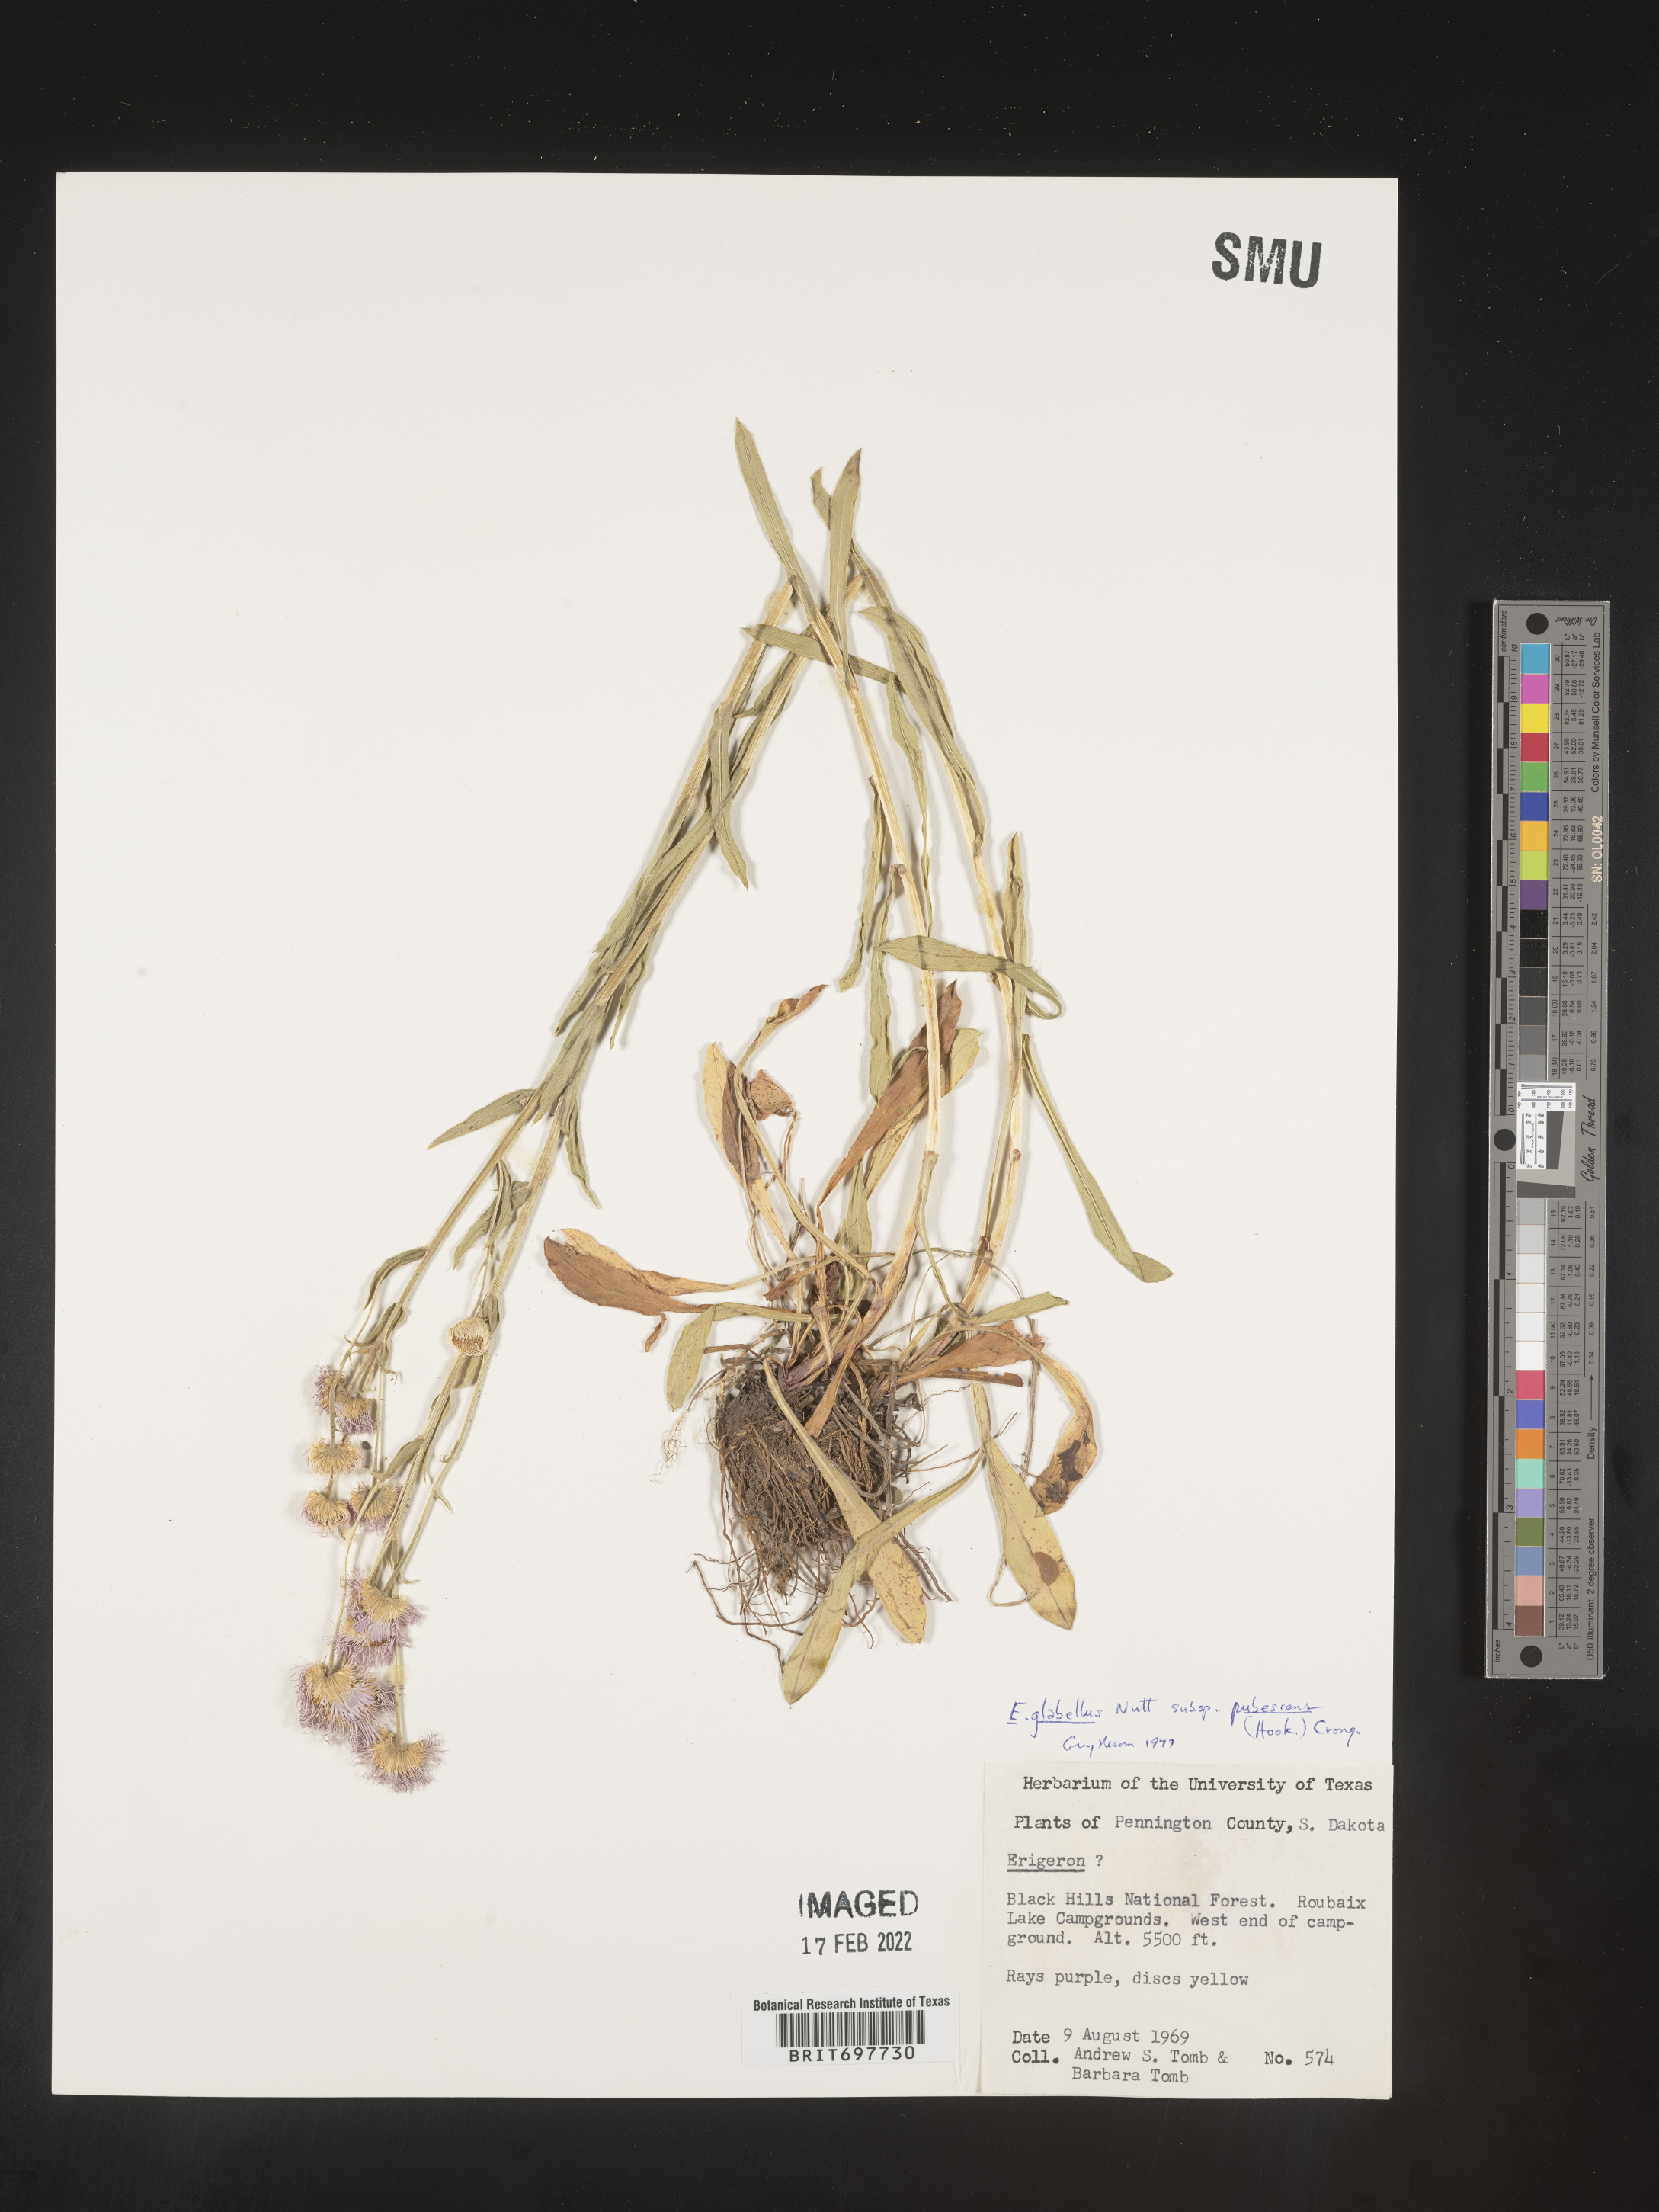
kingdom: Plantae
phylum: Tracheophyta
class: Magnoliopsida
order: Asterales
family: Asteraceae
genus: Erigeron
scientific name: Erigeron glabellus
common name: Smooth fleabane
